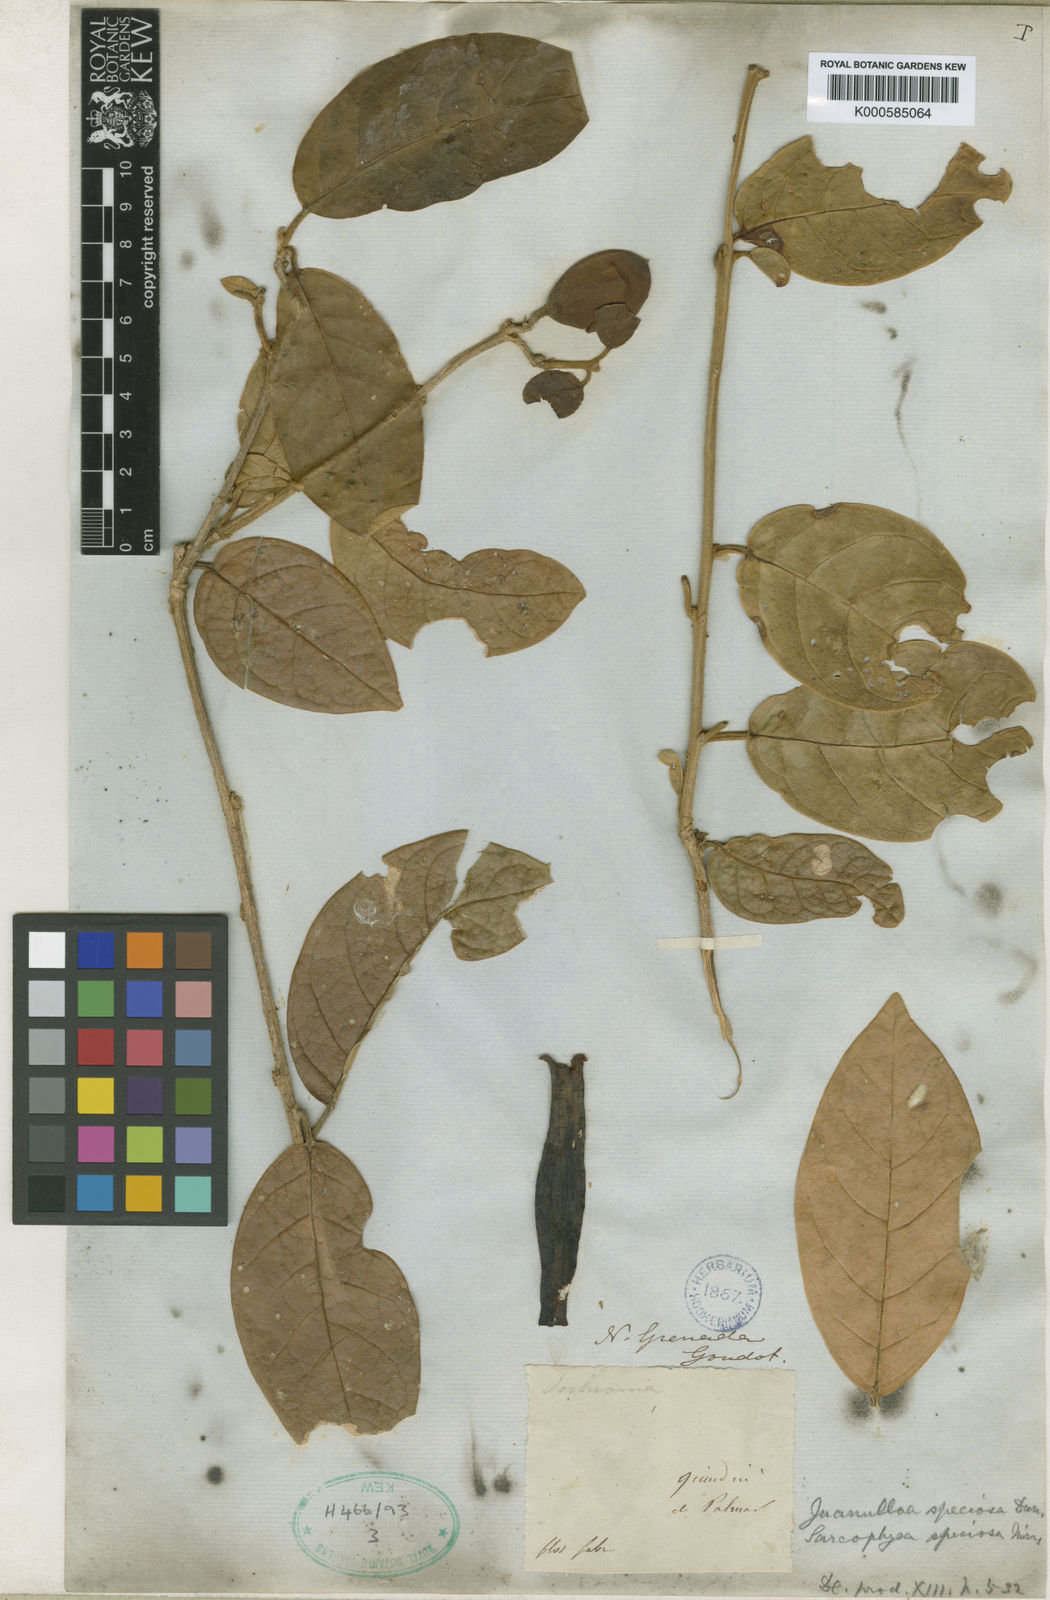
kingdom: Plantae
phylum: Tracheophyta
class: Magnoliopsida
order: Solanales
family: Solanaceae
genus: Juanulloa
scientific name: Juanulloa speciosa
